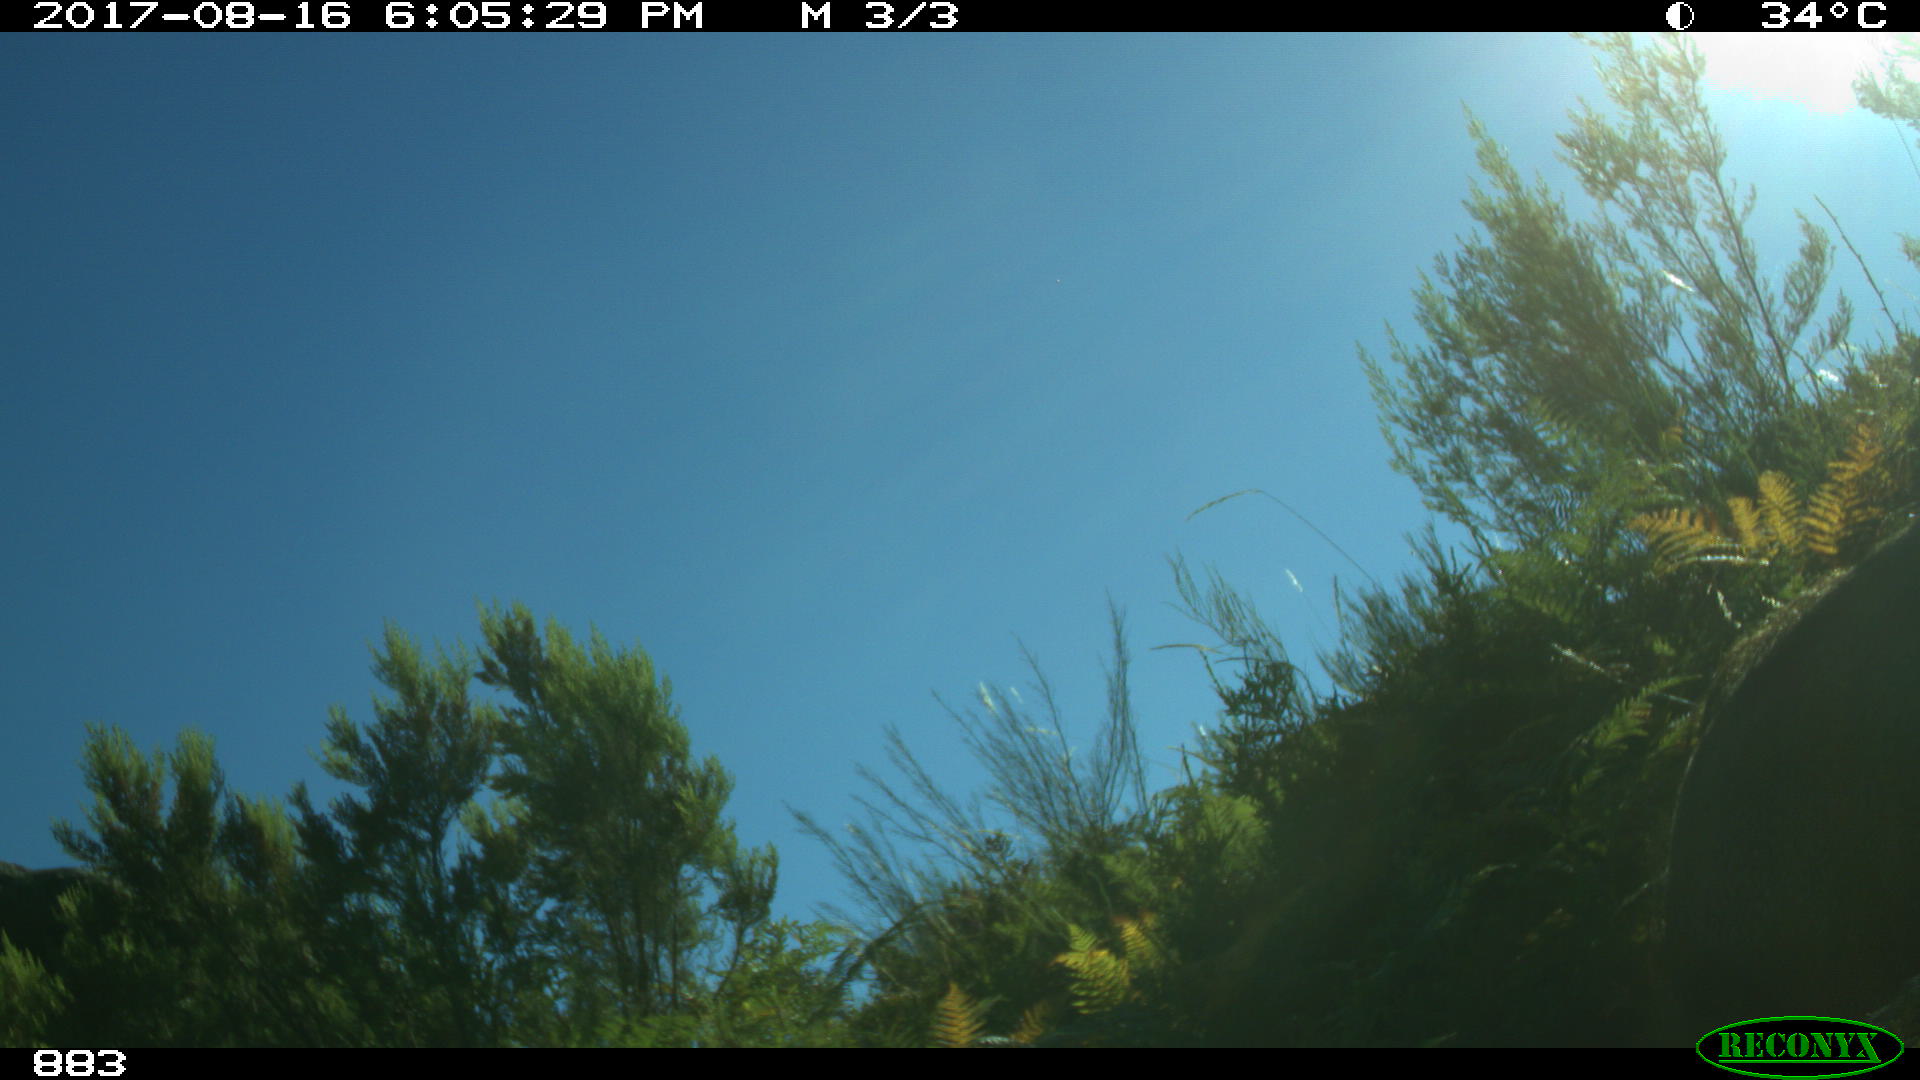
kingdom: Animalia
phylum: Chordata
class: Mammalia
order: Artiodactyla
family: Bovidae
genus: Bos
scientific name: Bos taurus
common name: Domesticated cattle
